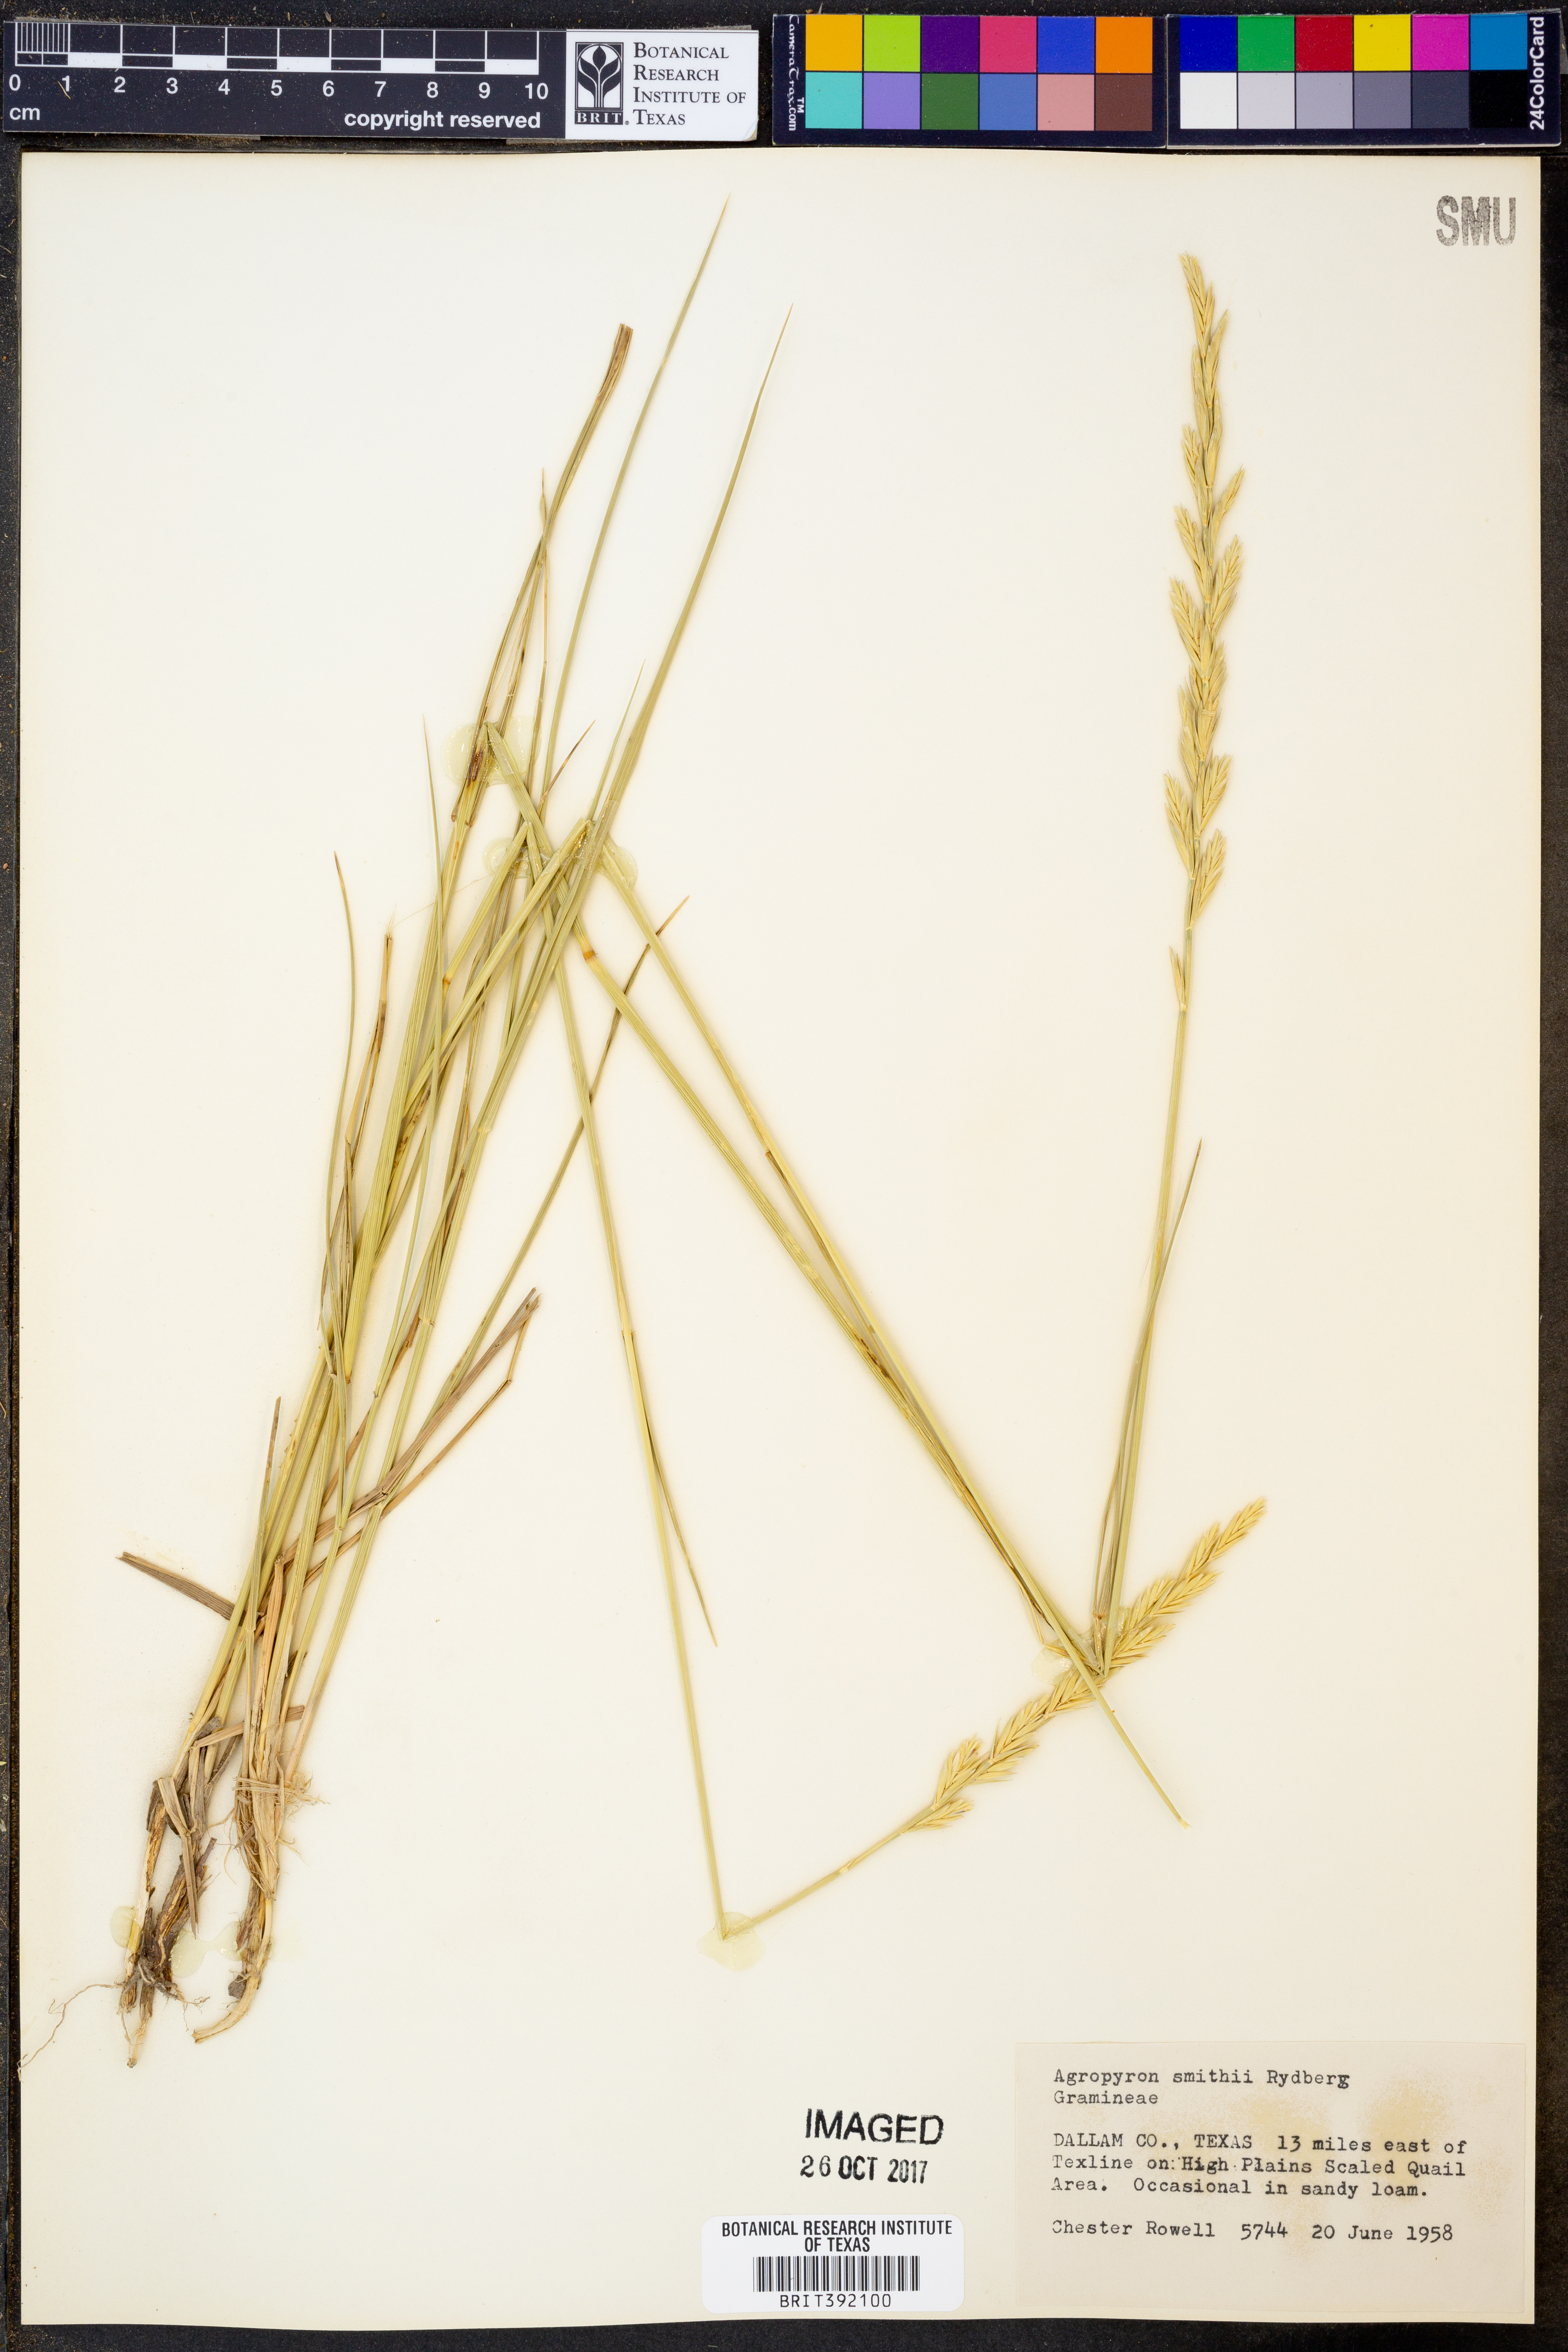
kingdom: Plantae
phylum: Tracheophyta
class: Liliopsida
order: Poales
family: Poaceae
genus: Elymus
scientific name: Elymus smithii
